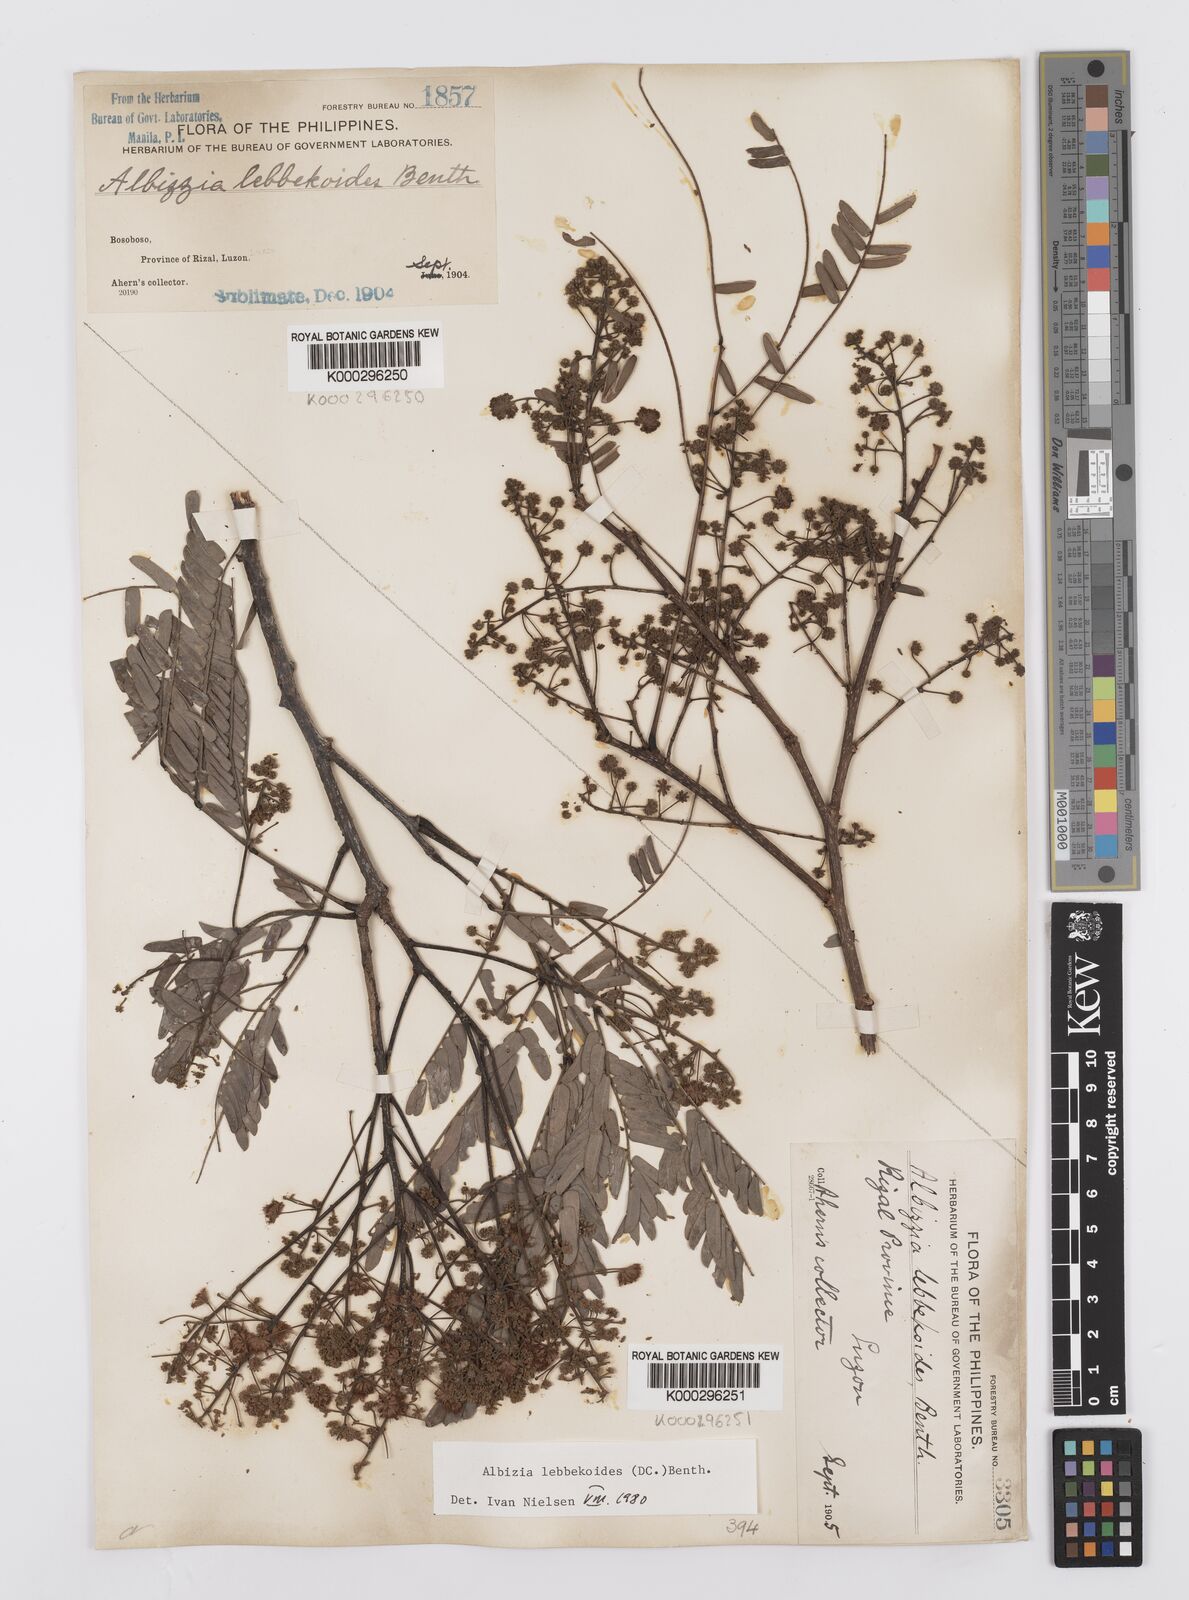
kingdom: Plantae
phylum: Tracheophyta
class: Magnoliopsida
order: Fabales
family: Fabaceae
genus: Albizia
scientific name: Albizia lebbekoides
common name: Indian albizia
